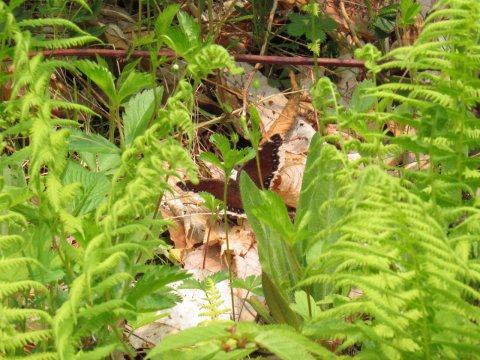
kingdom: Animalia
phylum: Arthropoda
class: Insecta
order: Lepidoptera
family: Nymphalidae
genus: Nymphalis
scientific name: Nymphalis antiopa
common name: Mourning Cloak
